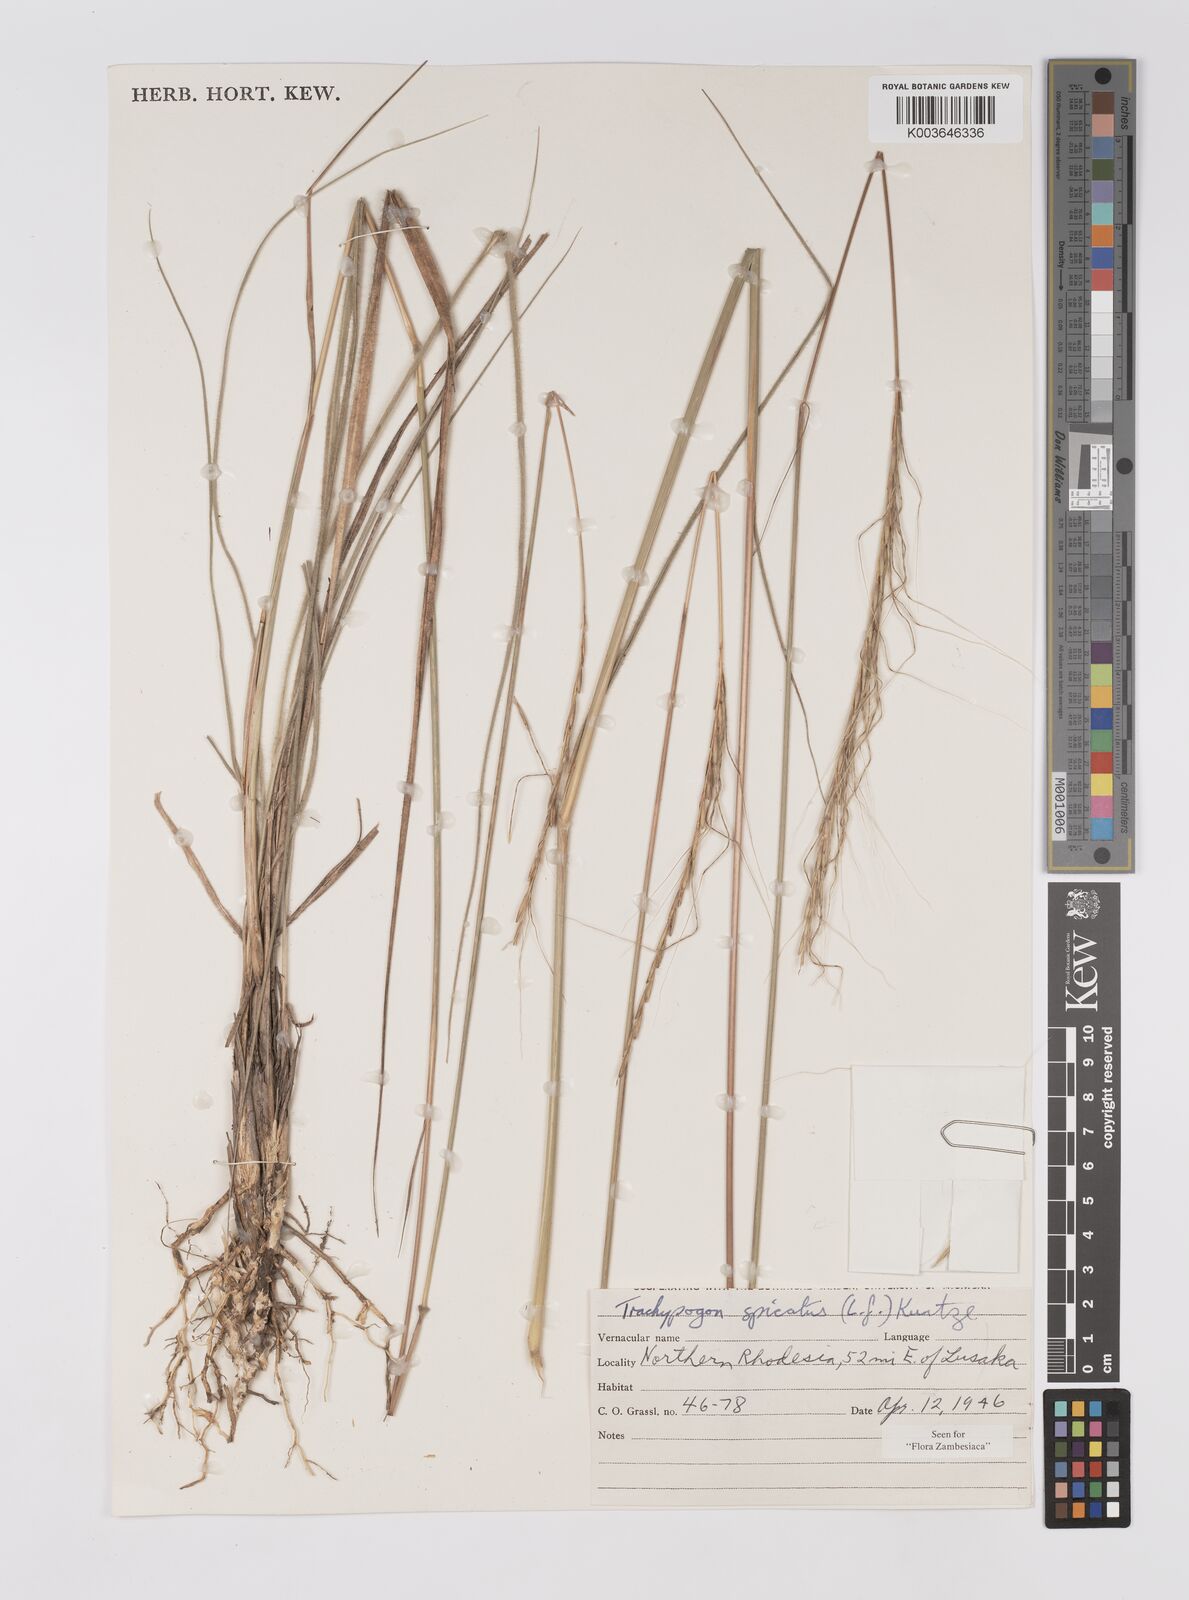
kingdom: Plantae
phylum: Tracheophyta
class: Liliopsida
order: Poales
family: Poaceae
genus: Trachypogon
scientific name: Trachypogon spicatus
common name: Crinkle-awn
